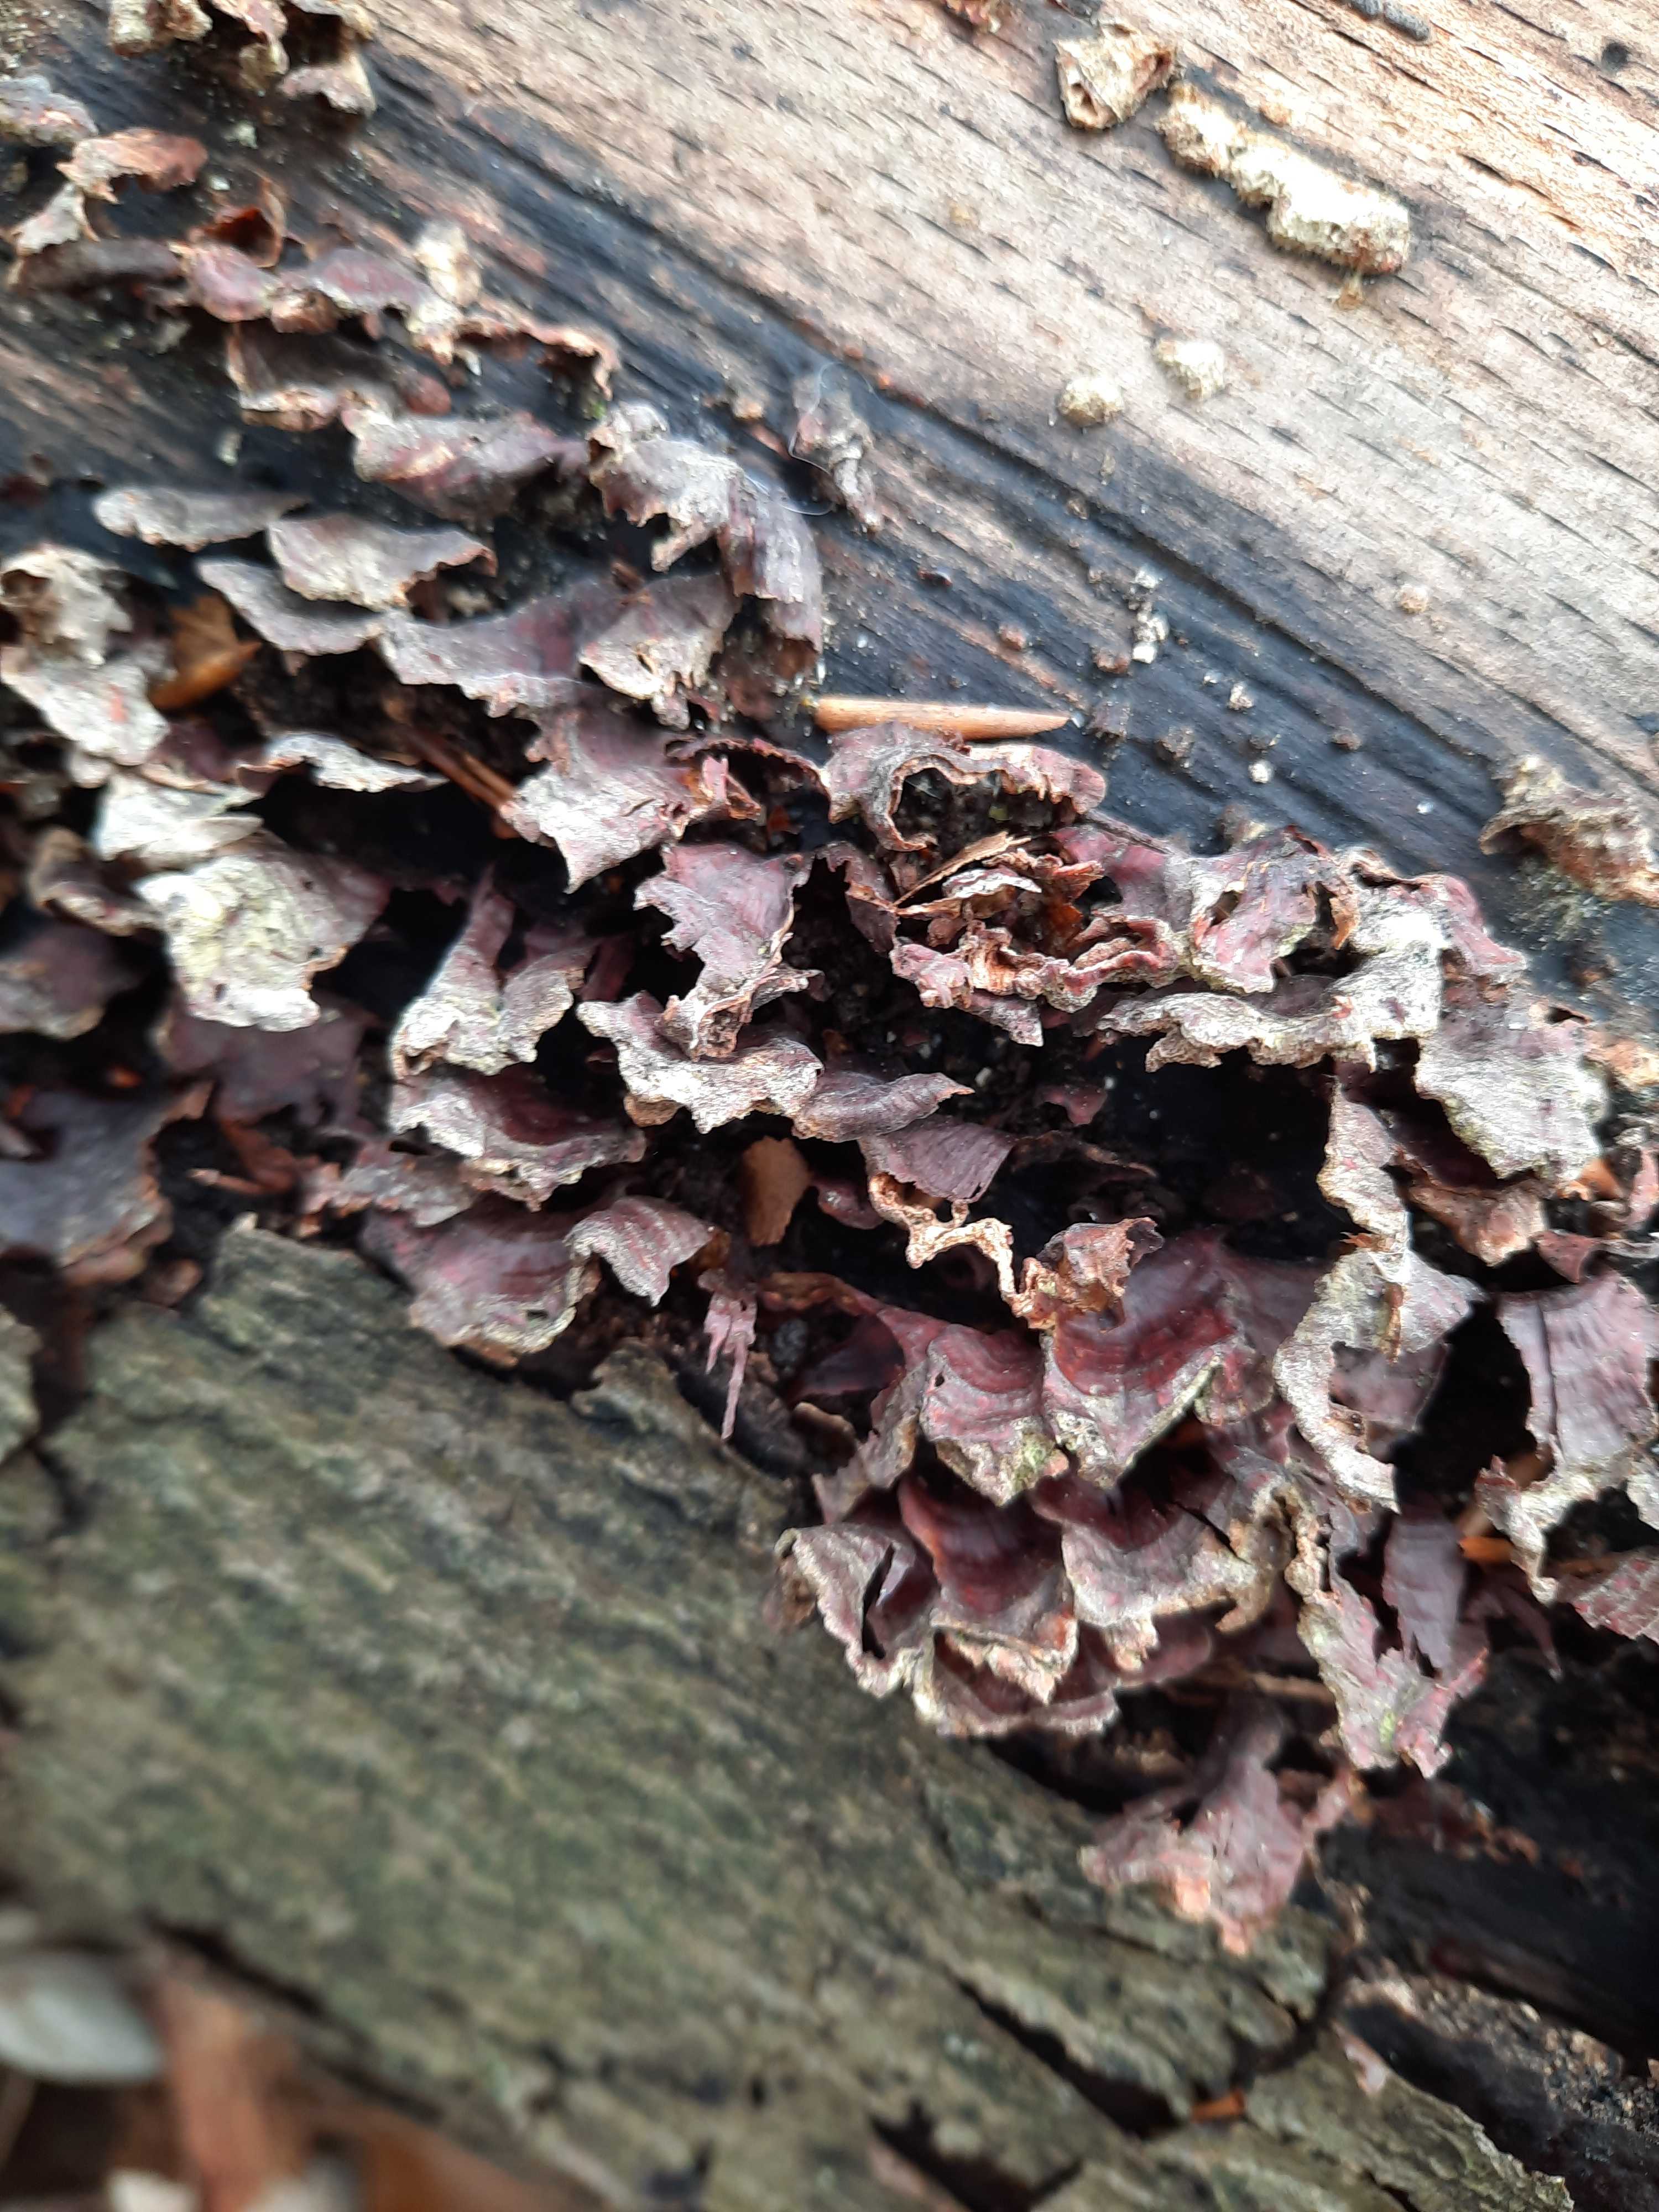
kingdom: Fungi
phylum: Basidiomycota
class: Agaricomycetes
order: Agaricales
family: Cyphellaceae
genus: Chondrostereum
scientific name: Chondrostereum purpureum
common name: purpurlædersvamp
